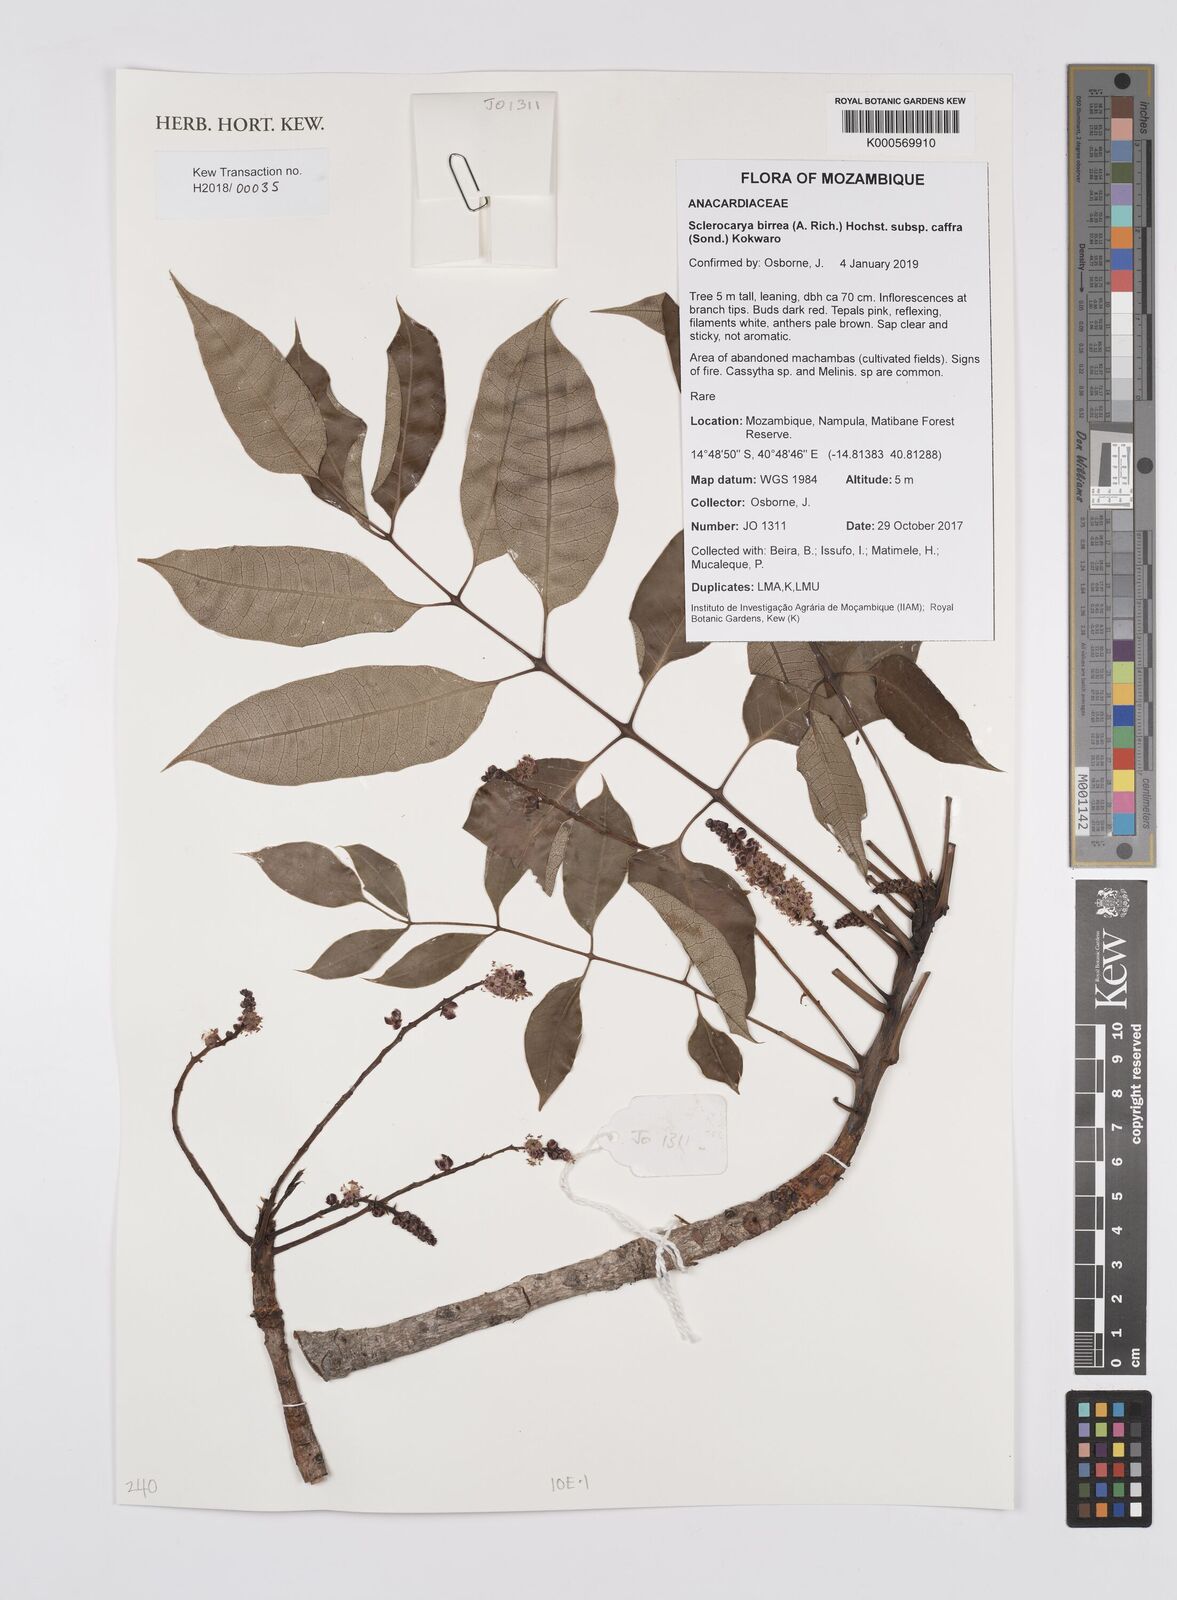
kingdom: Plantae
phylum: Tracheophyta
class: Magnoliopsida
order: Sapindales
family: Anacardiaceae
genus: Sclerocarya
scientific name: Sclerocarya birrea
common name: Marula
